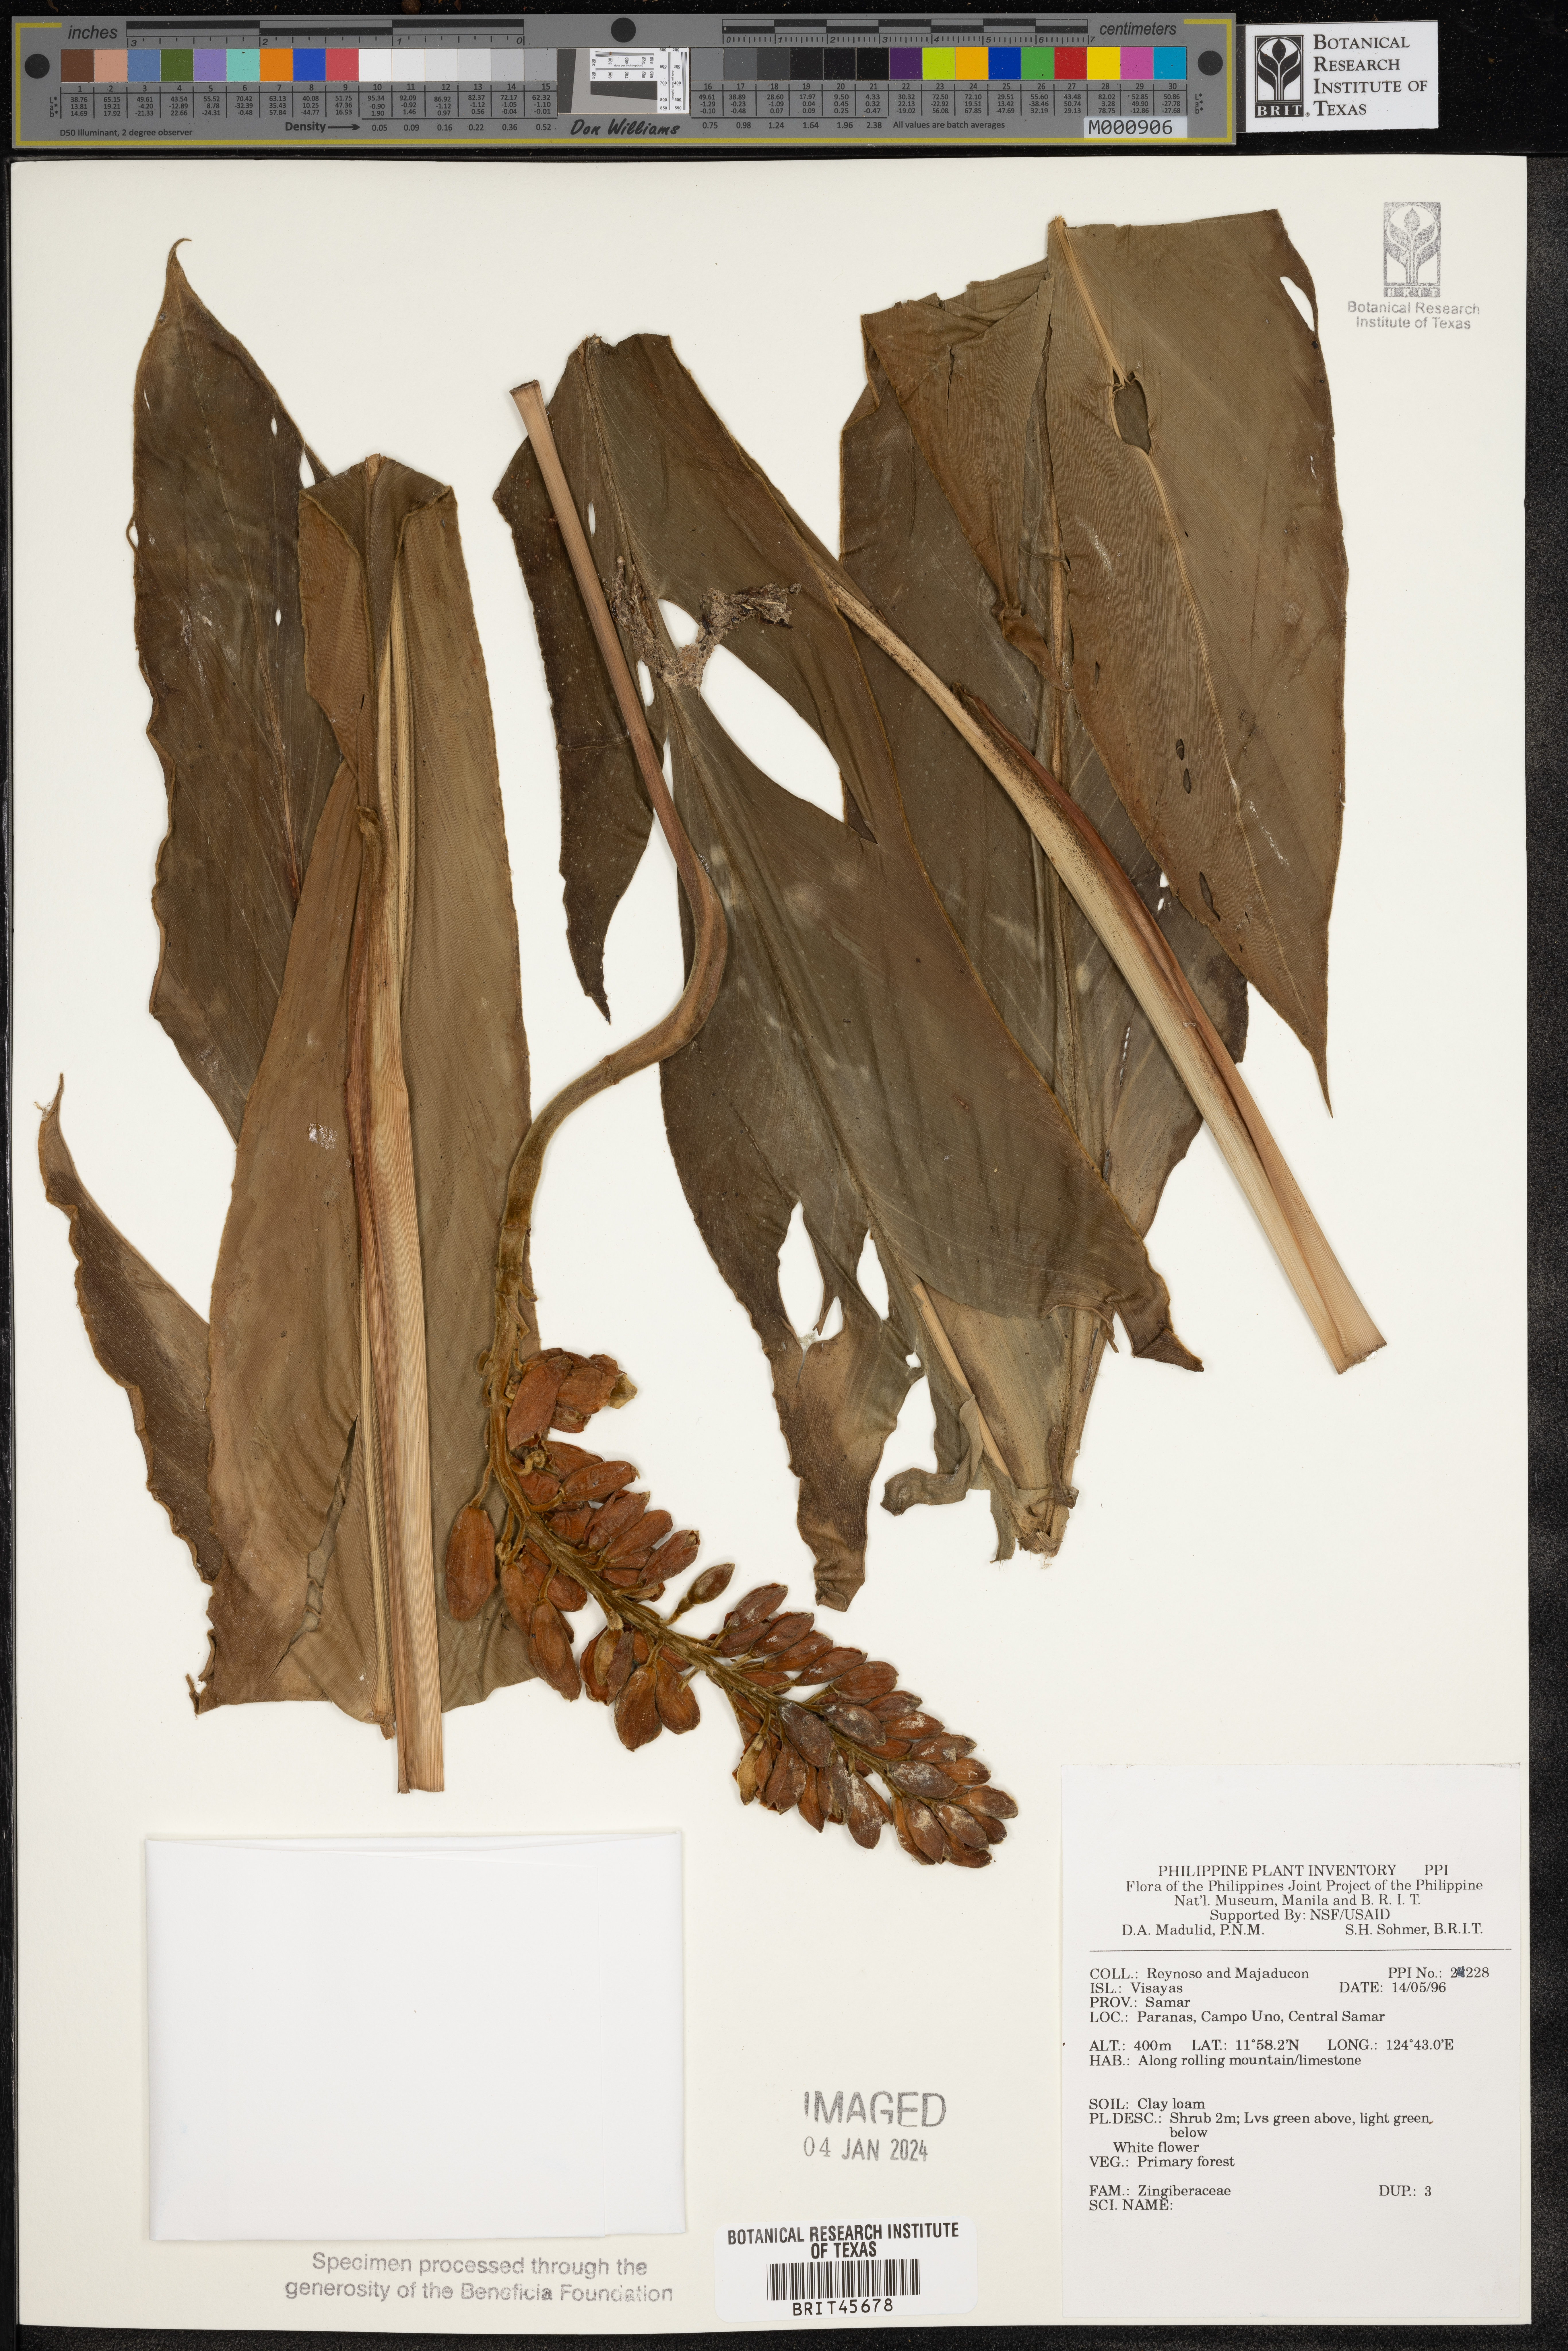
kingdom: Plantae
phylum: Tracheophyta
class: Liliopsida
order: Zingiberales
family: Zingiberaceae
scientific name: Zingiberaceae
